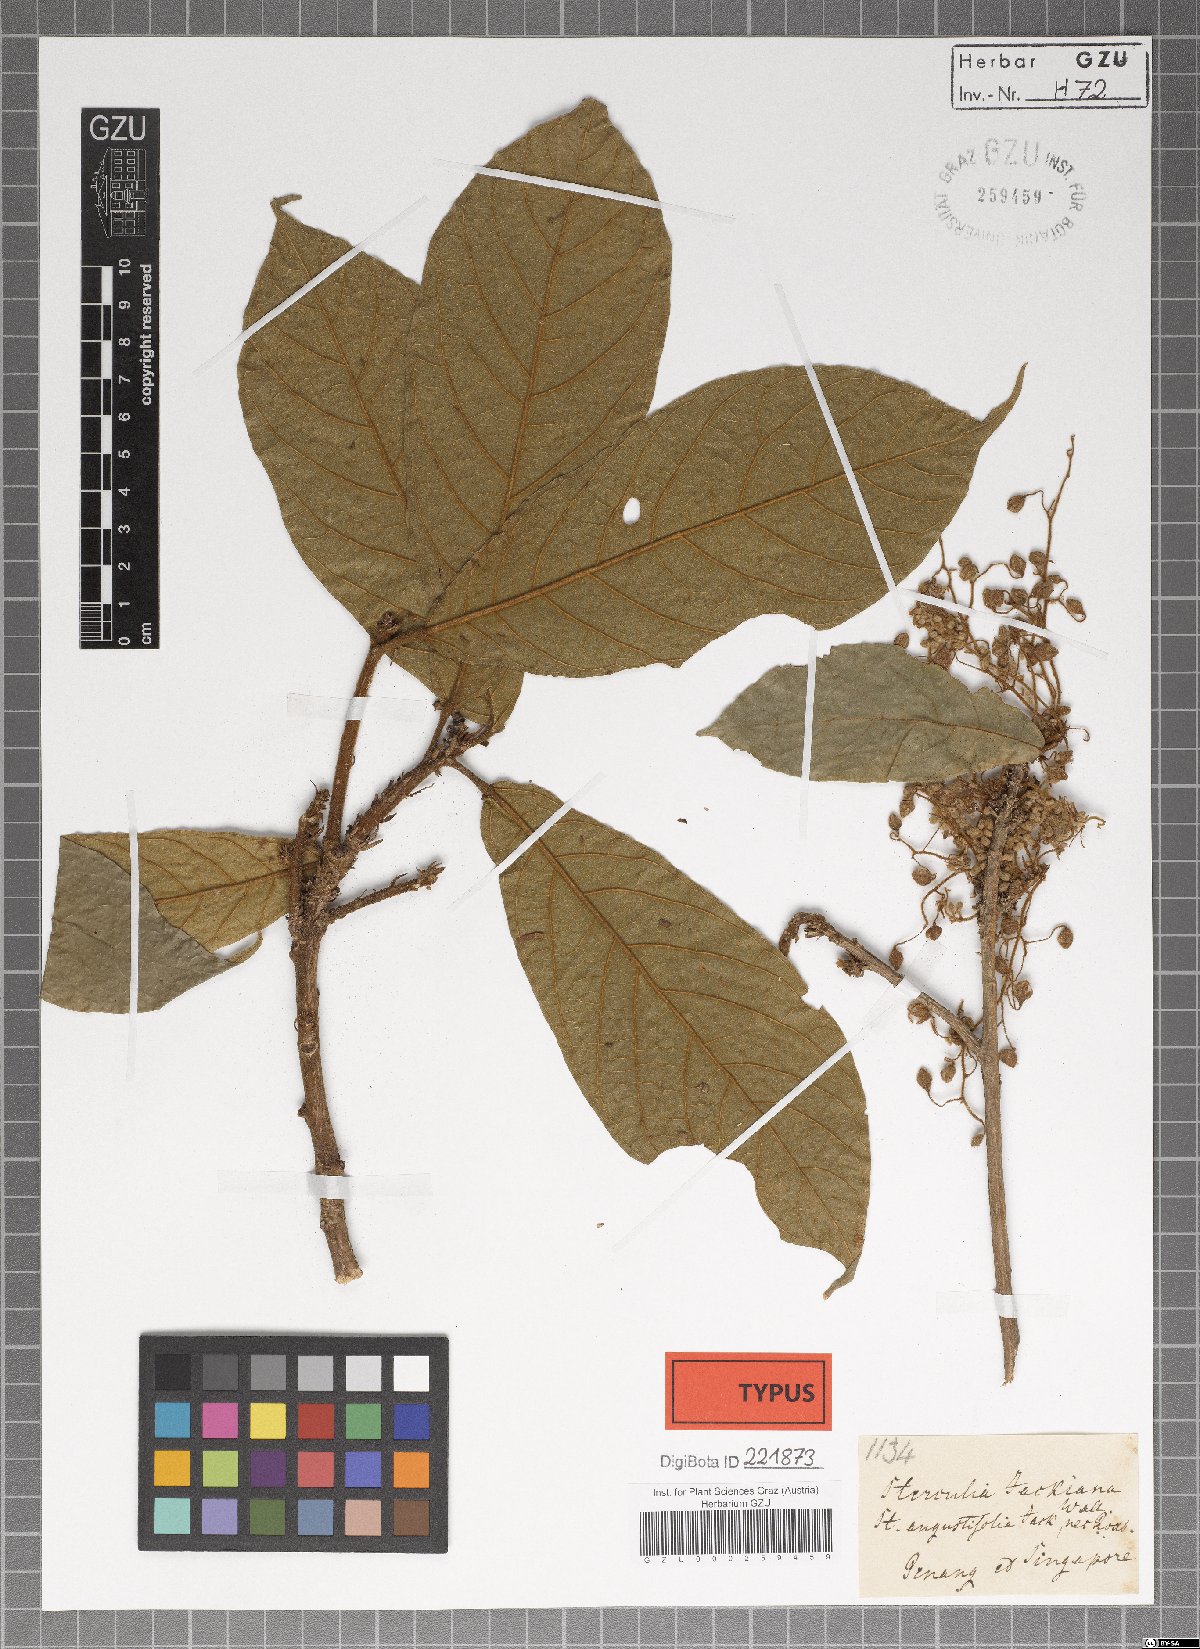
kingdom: Plantae
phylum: Tracheophyta
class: Magnoliopsida
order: Malvales
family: Malvaceae
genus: Sterculia
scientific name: Sterculia rubiginosa
